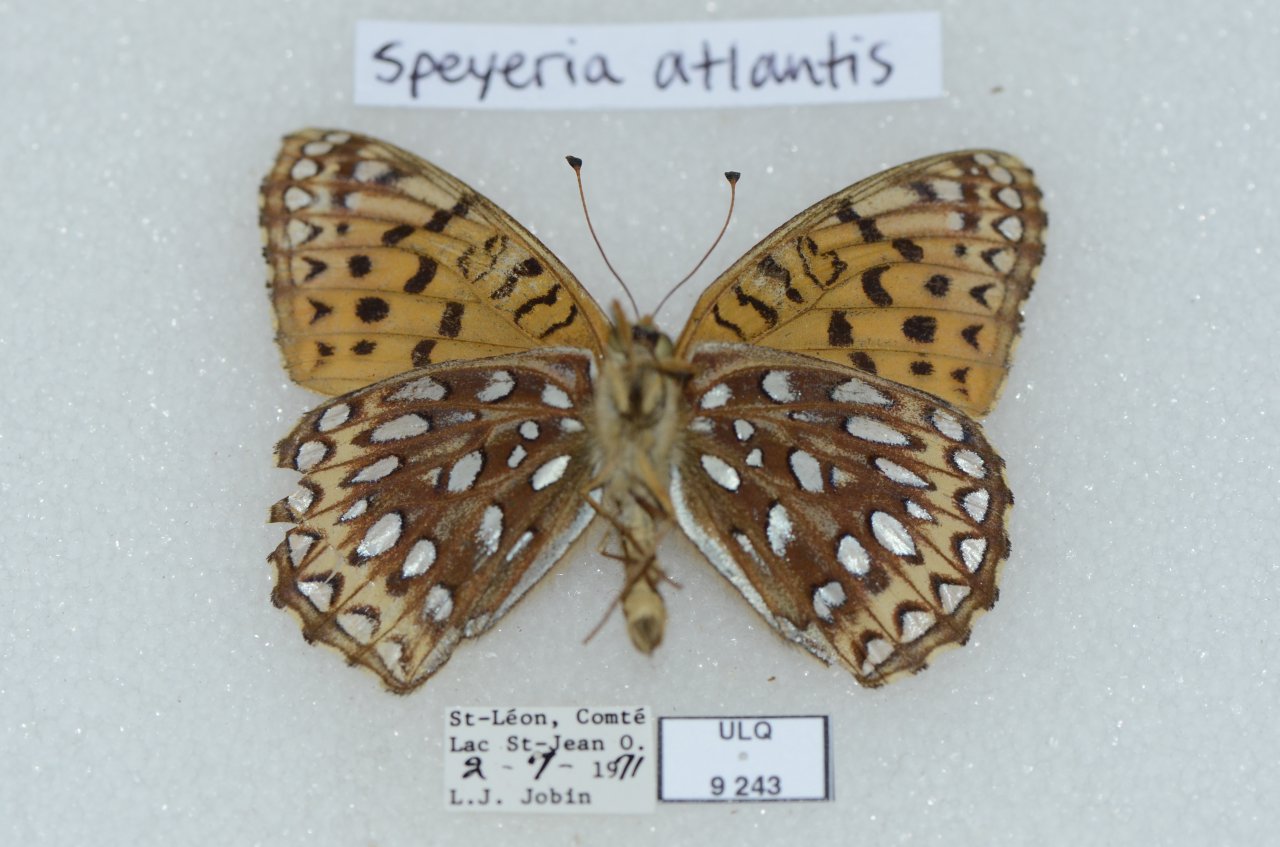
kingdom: Animalia
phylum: Arthropoda
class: Insecta
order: Lepidoptera
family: Nymphalidae
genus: Speyeria
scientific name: Speyeria atlantis
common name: Atlantis Fritillary
